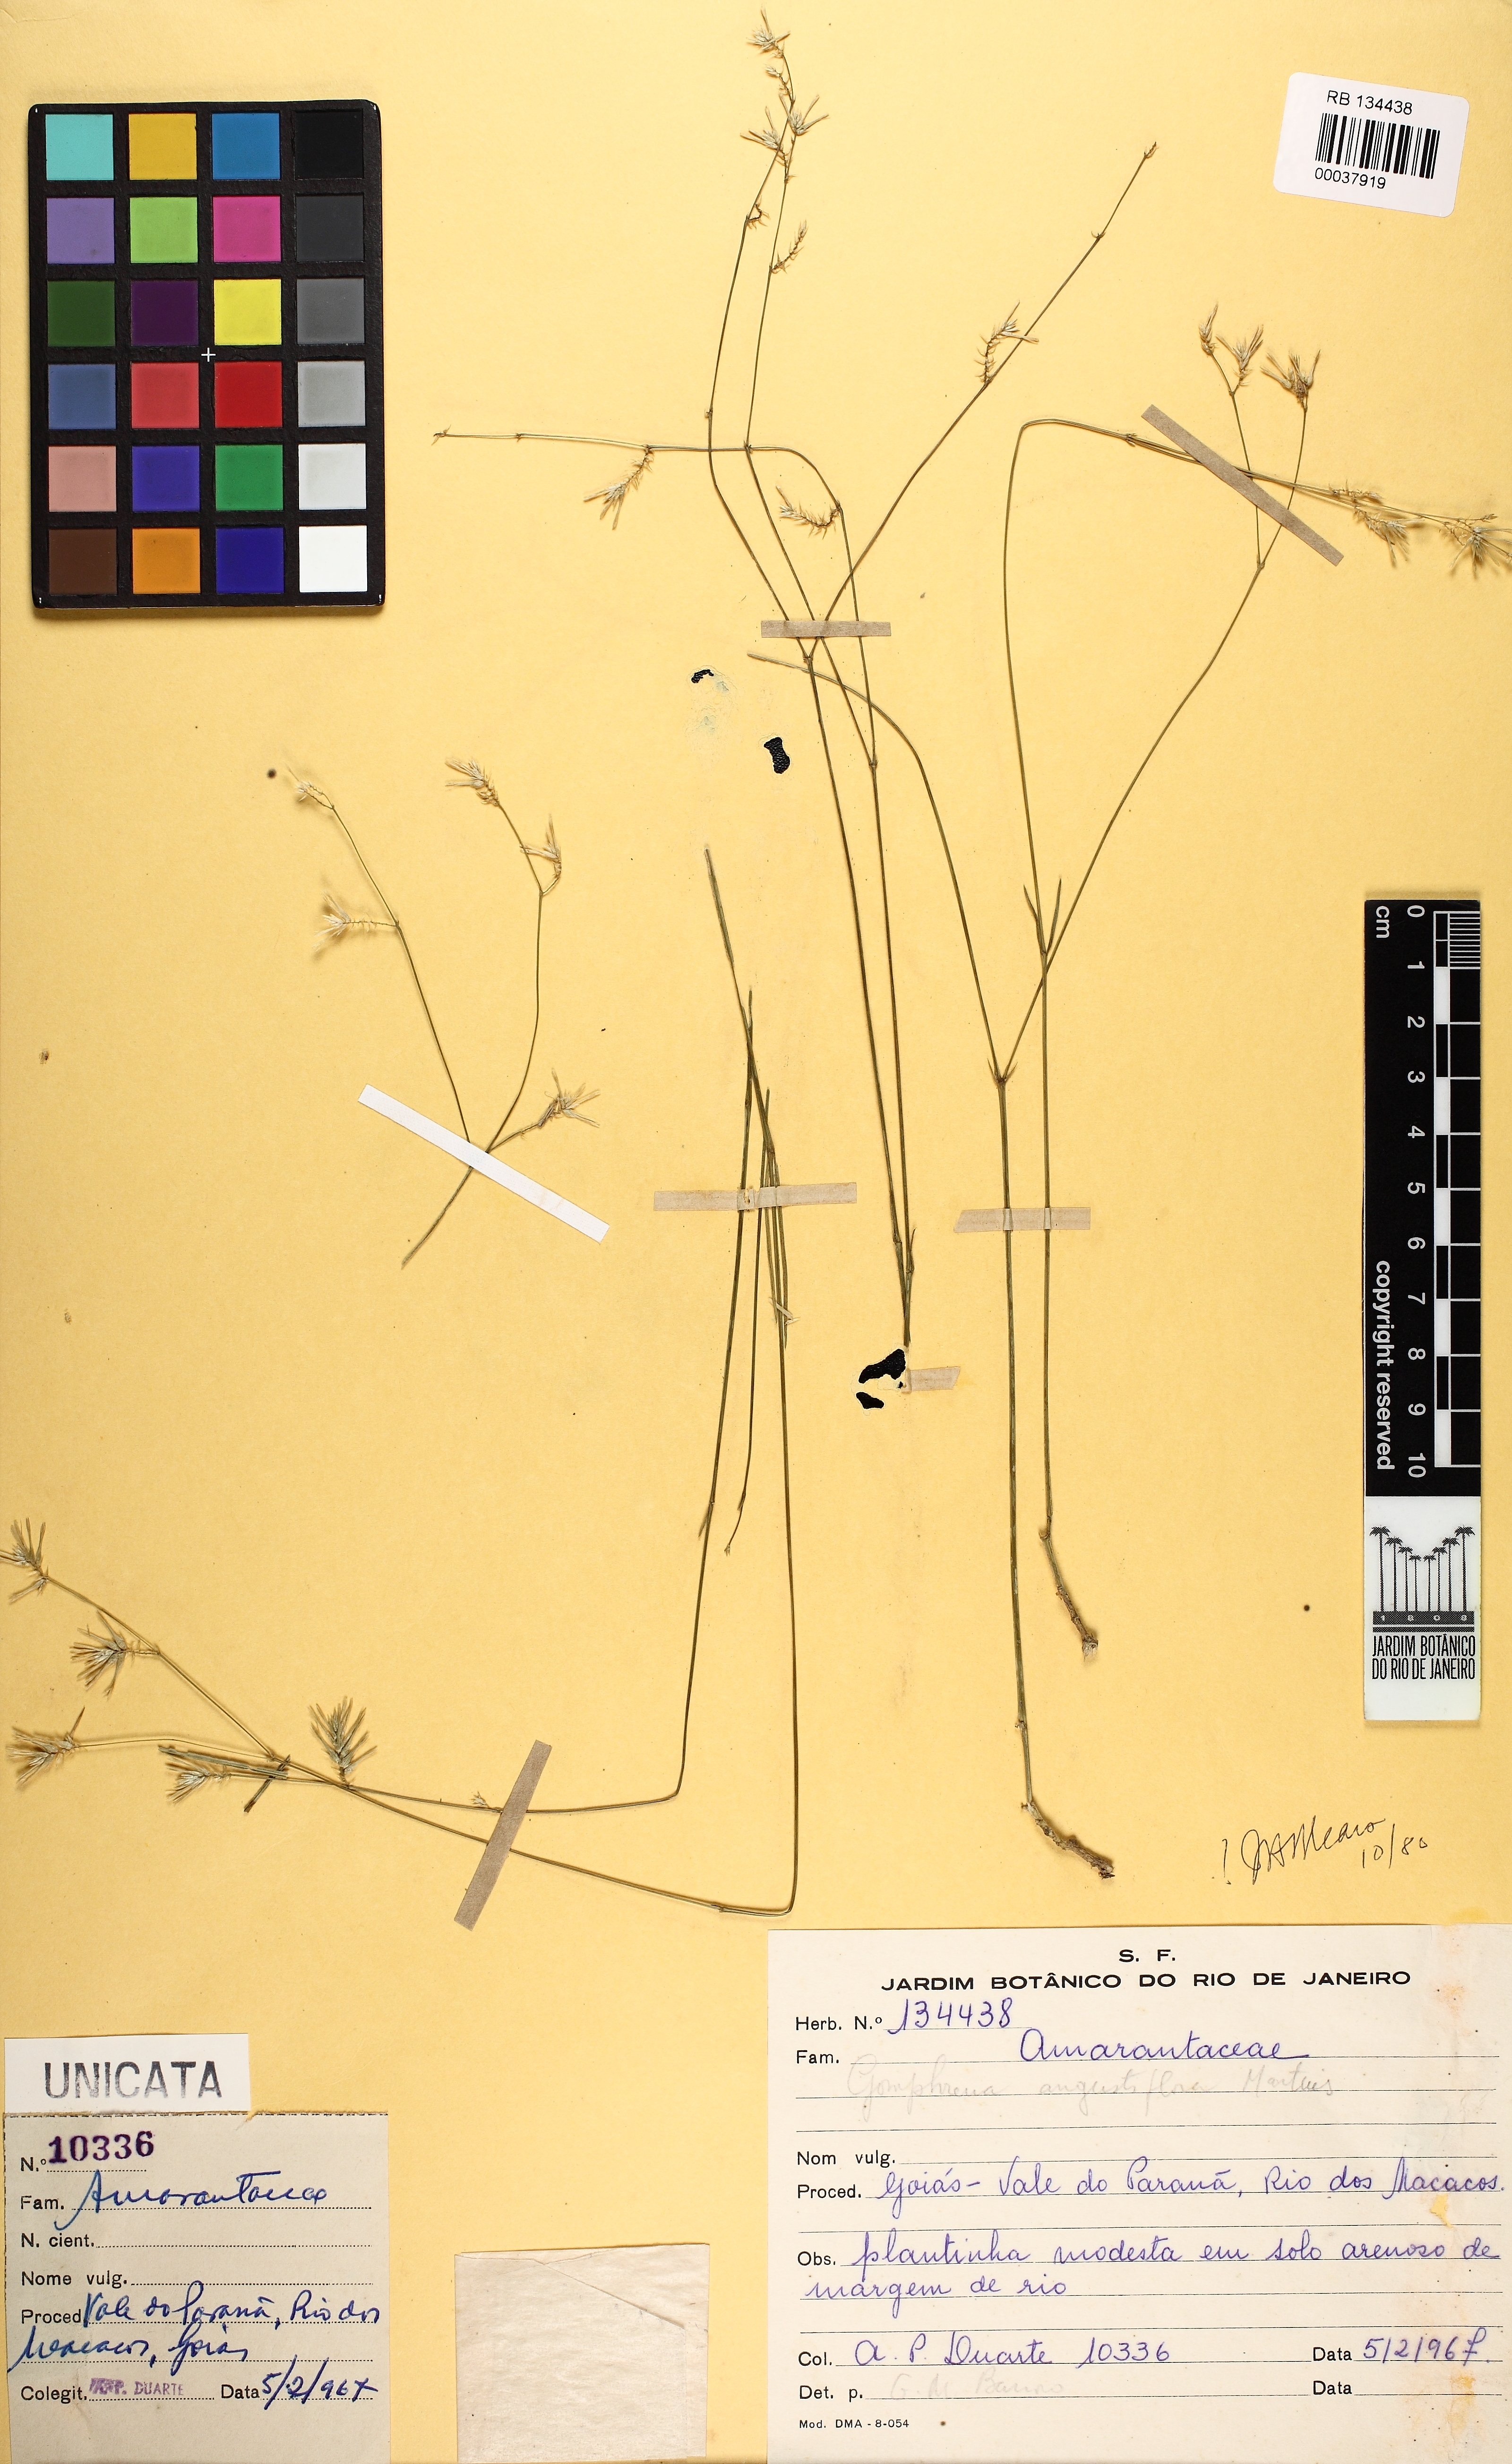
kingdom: Plantae
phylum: Tracheophyta
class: Magnoliopsida
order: Caryophyllales
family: Amaranthaceae
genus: Gomphrena
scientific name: Gomphrena angustiflora
